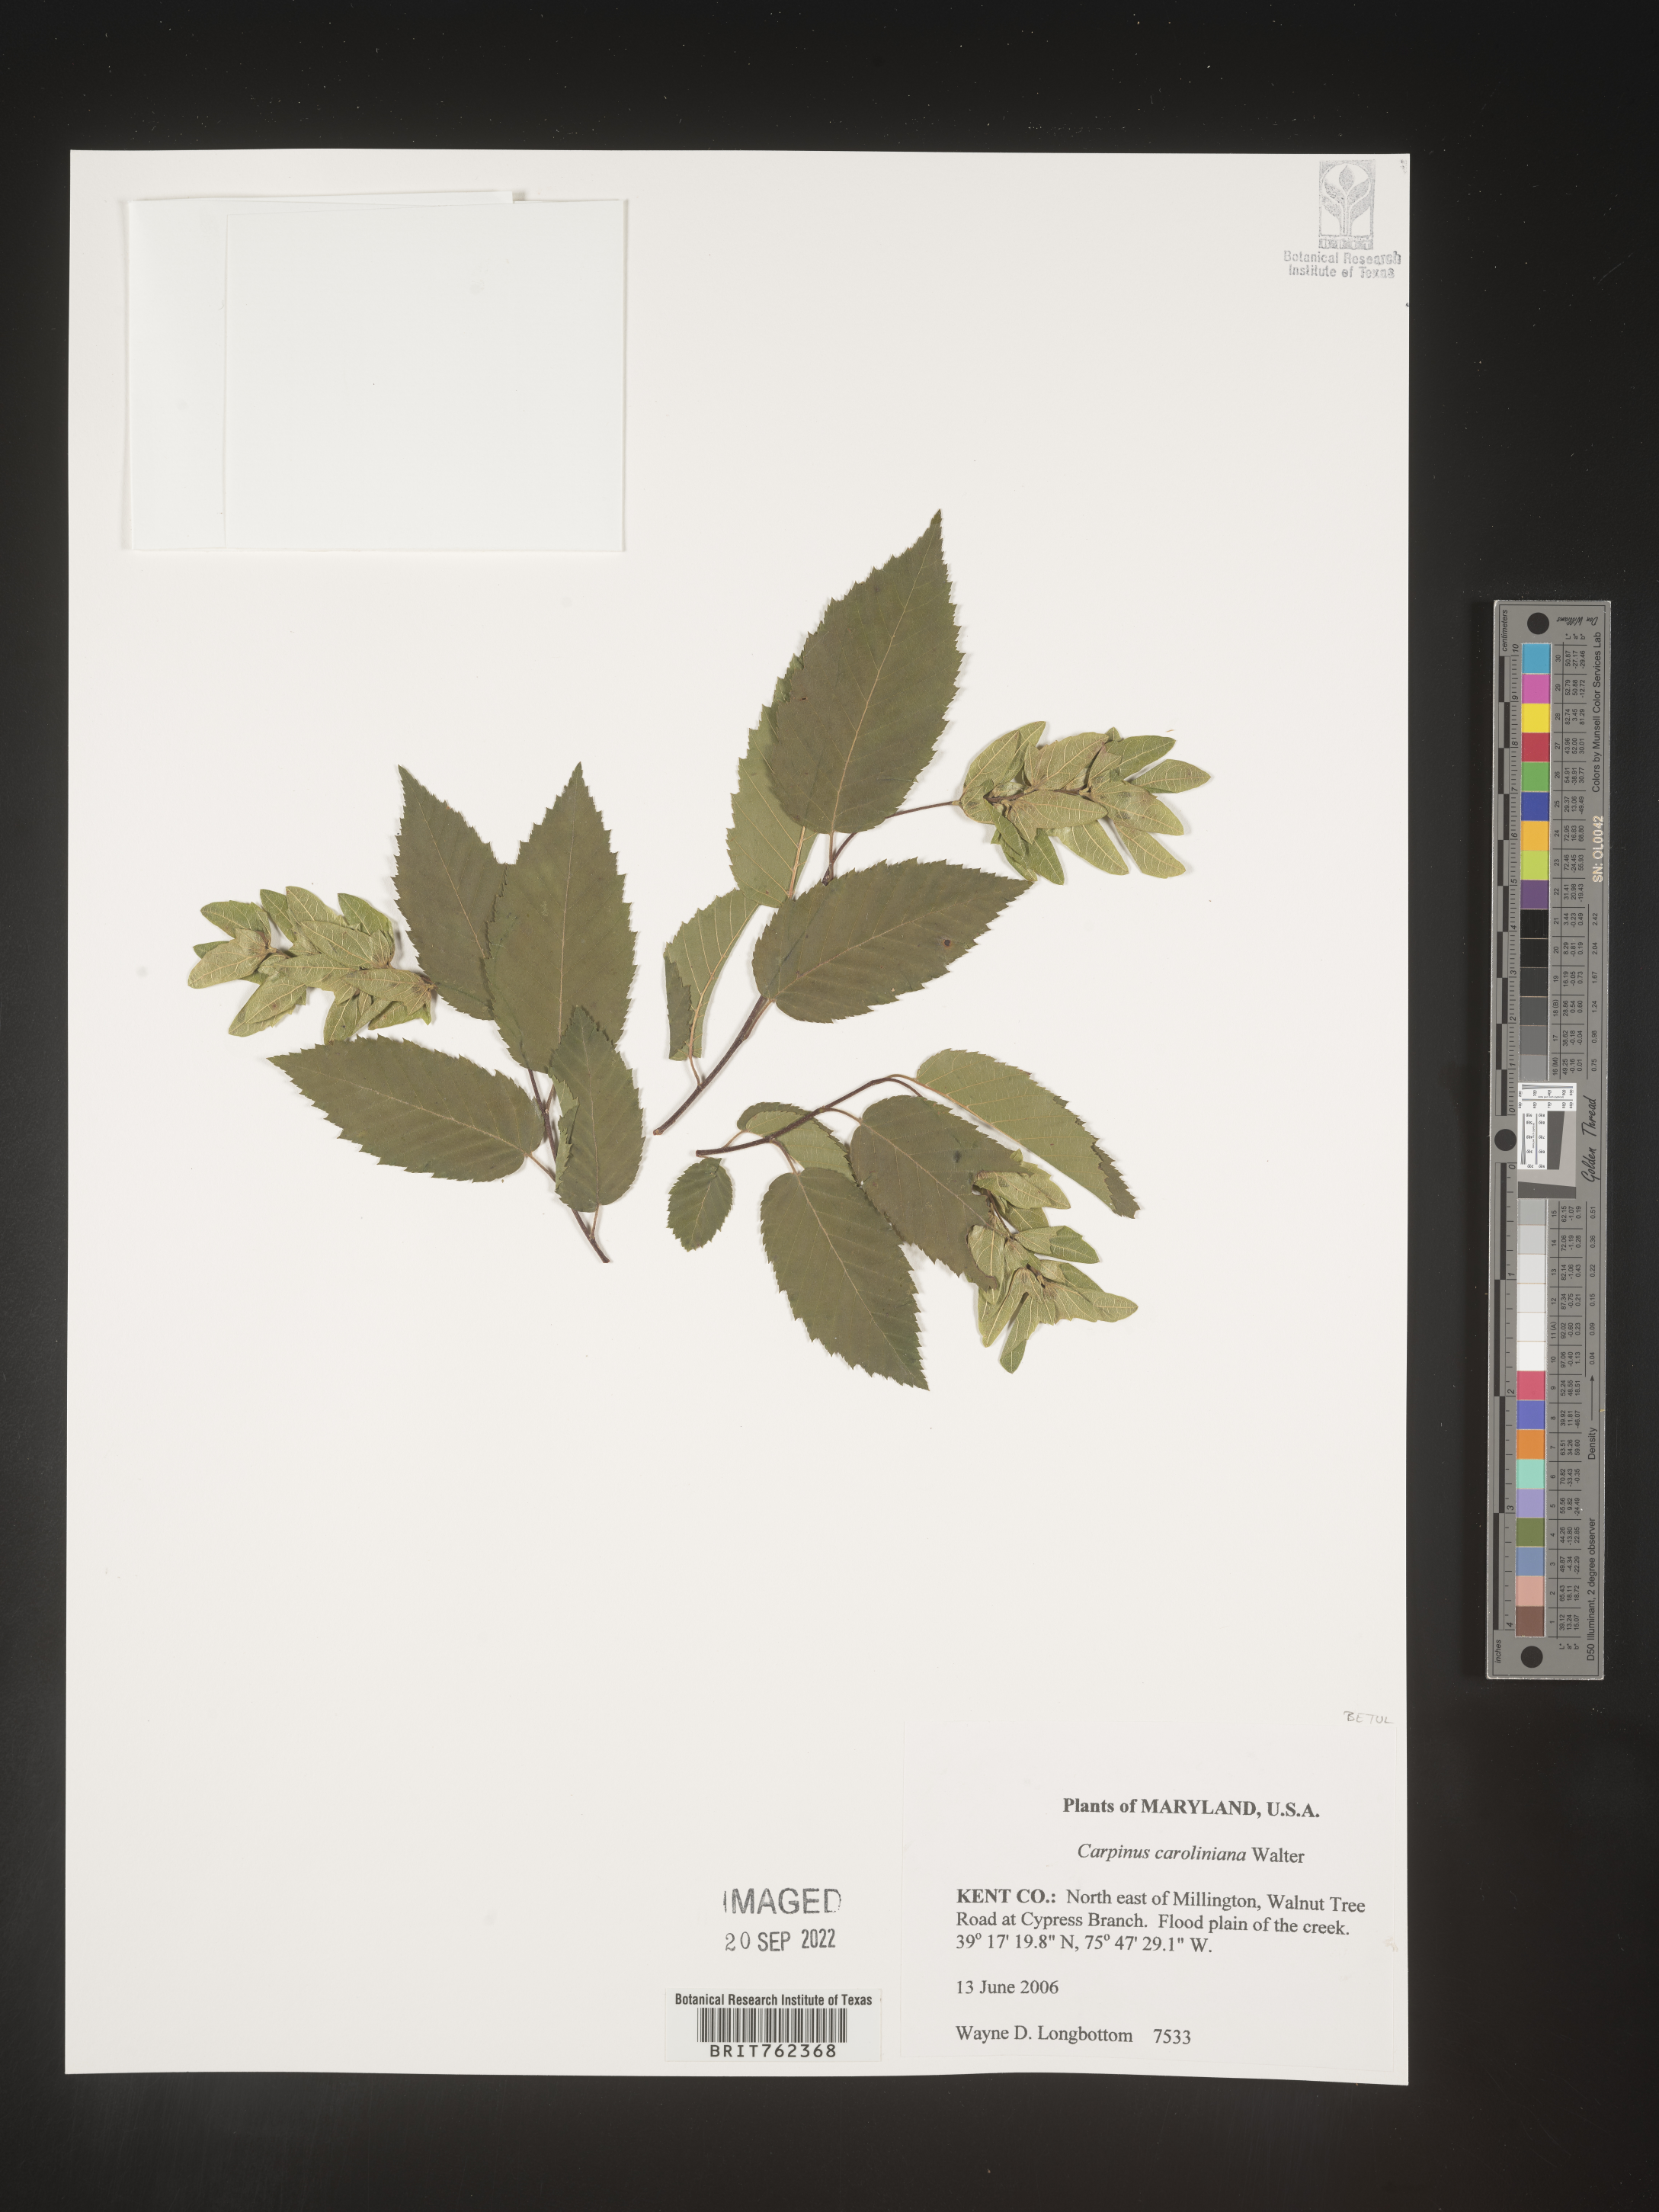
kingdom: Plantae
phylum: Tracheophyta
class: Magnoliopsida
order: Fagales
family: Betulaceae
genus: Carpinus
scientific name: Carpinus caroliniana
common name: American hornbeam
